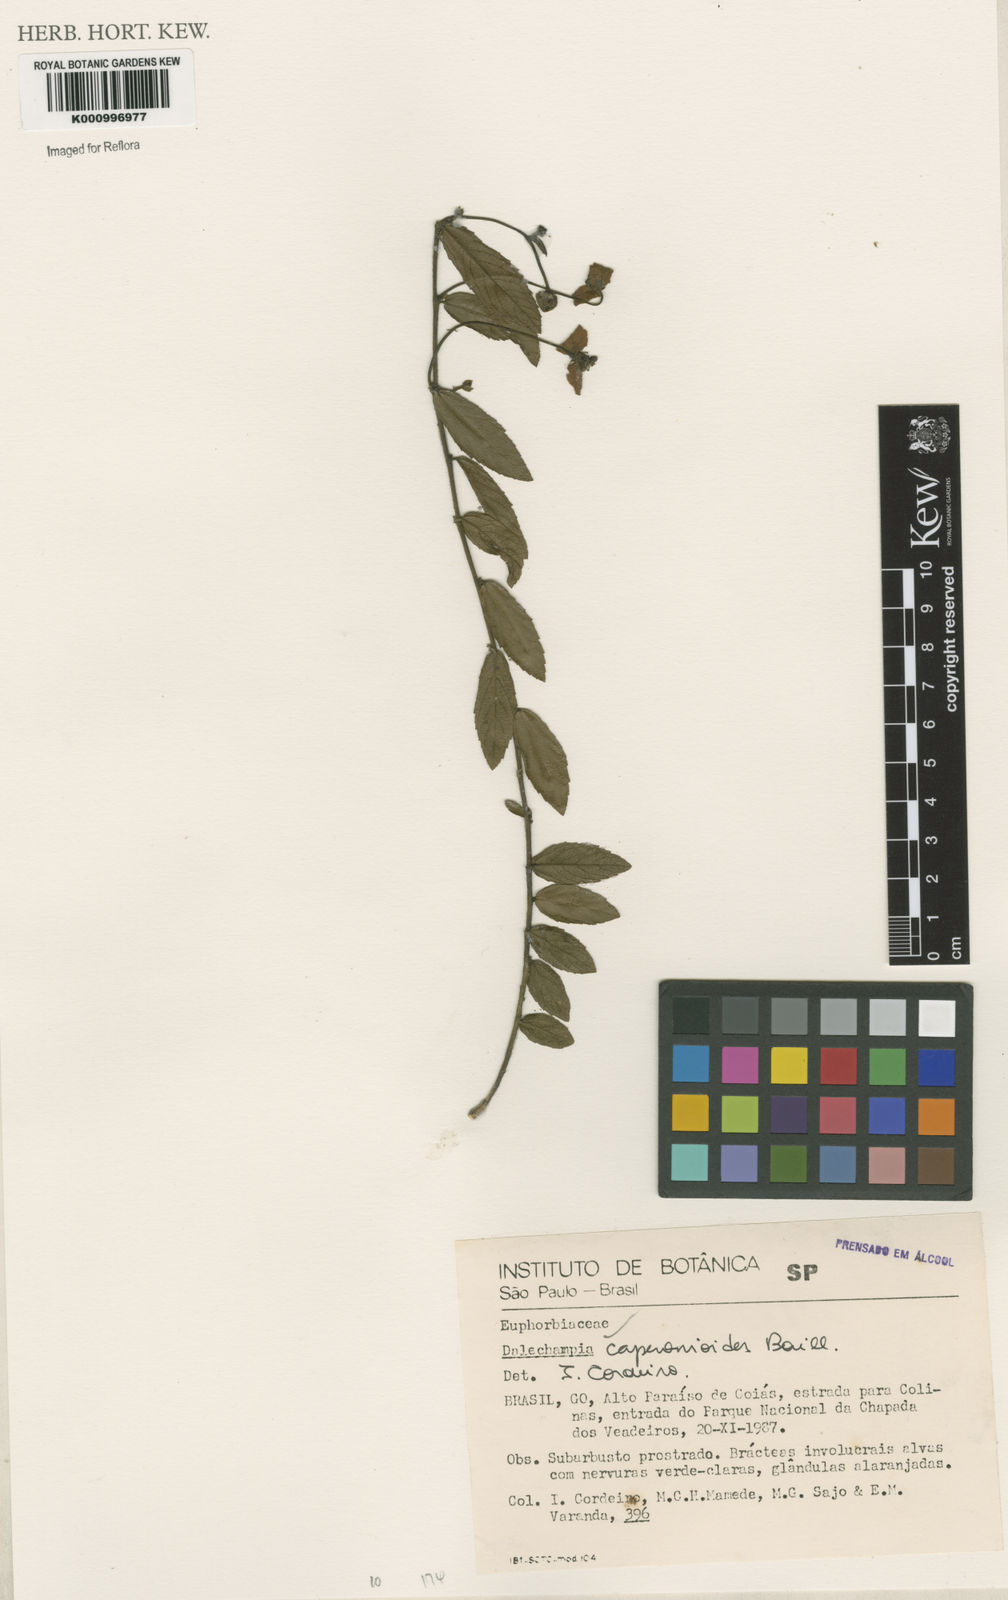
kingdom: Plantae
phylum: Tracheophyta
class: Magnoliopsida
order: Malpighiales
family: Euphorbiaceae
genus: Dalechampia
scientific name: Dalechampia caperonioides
